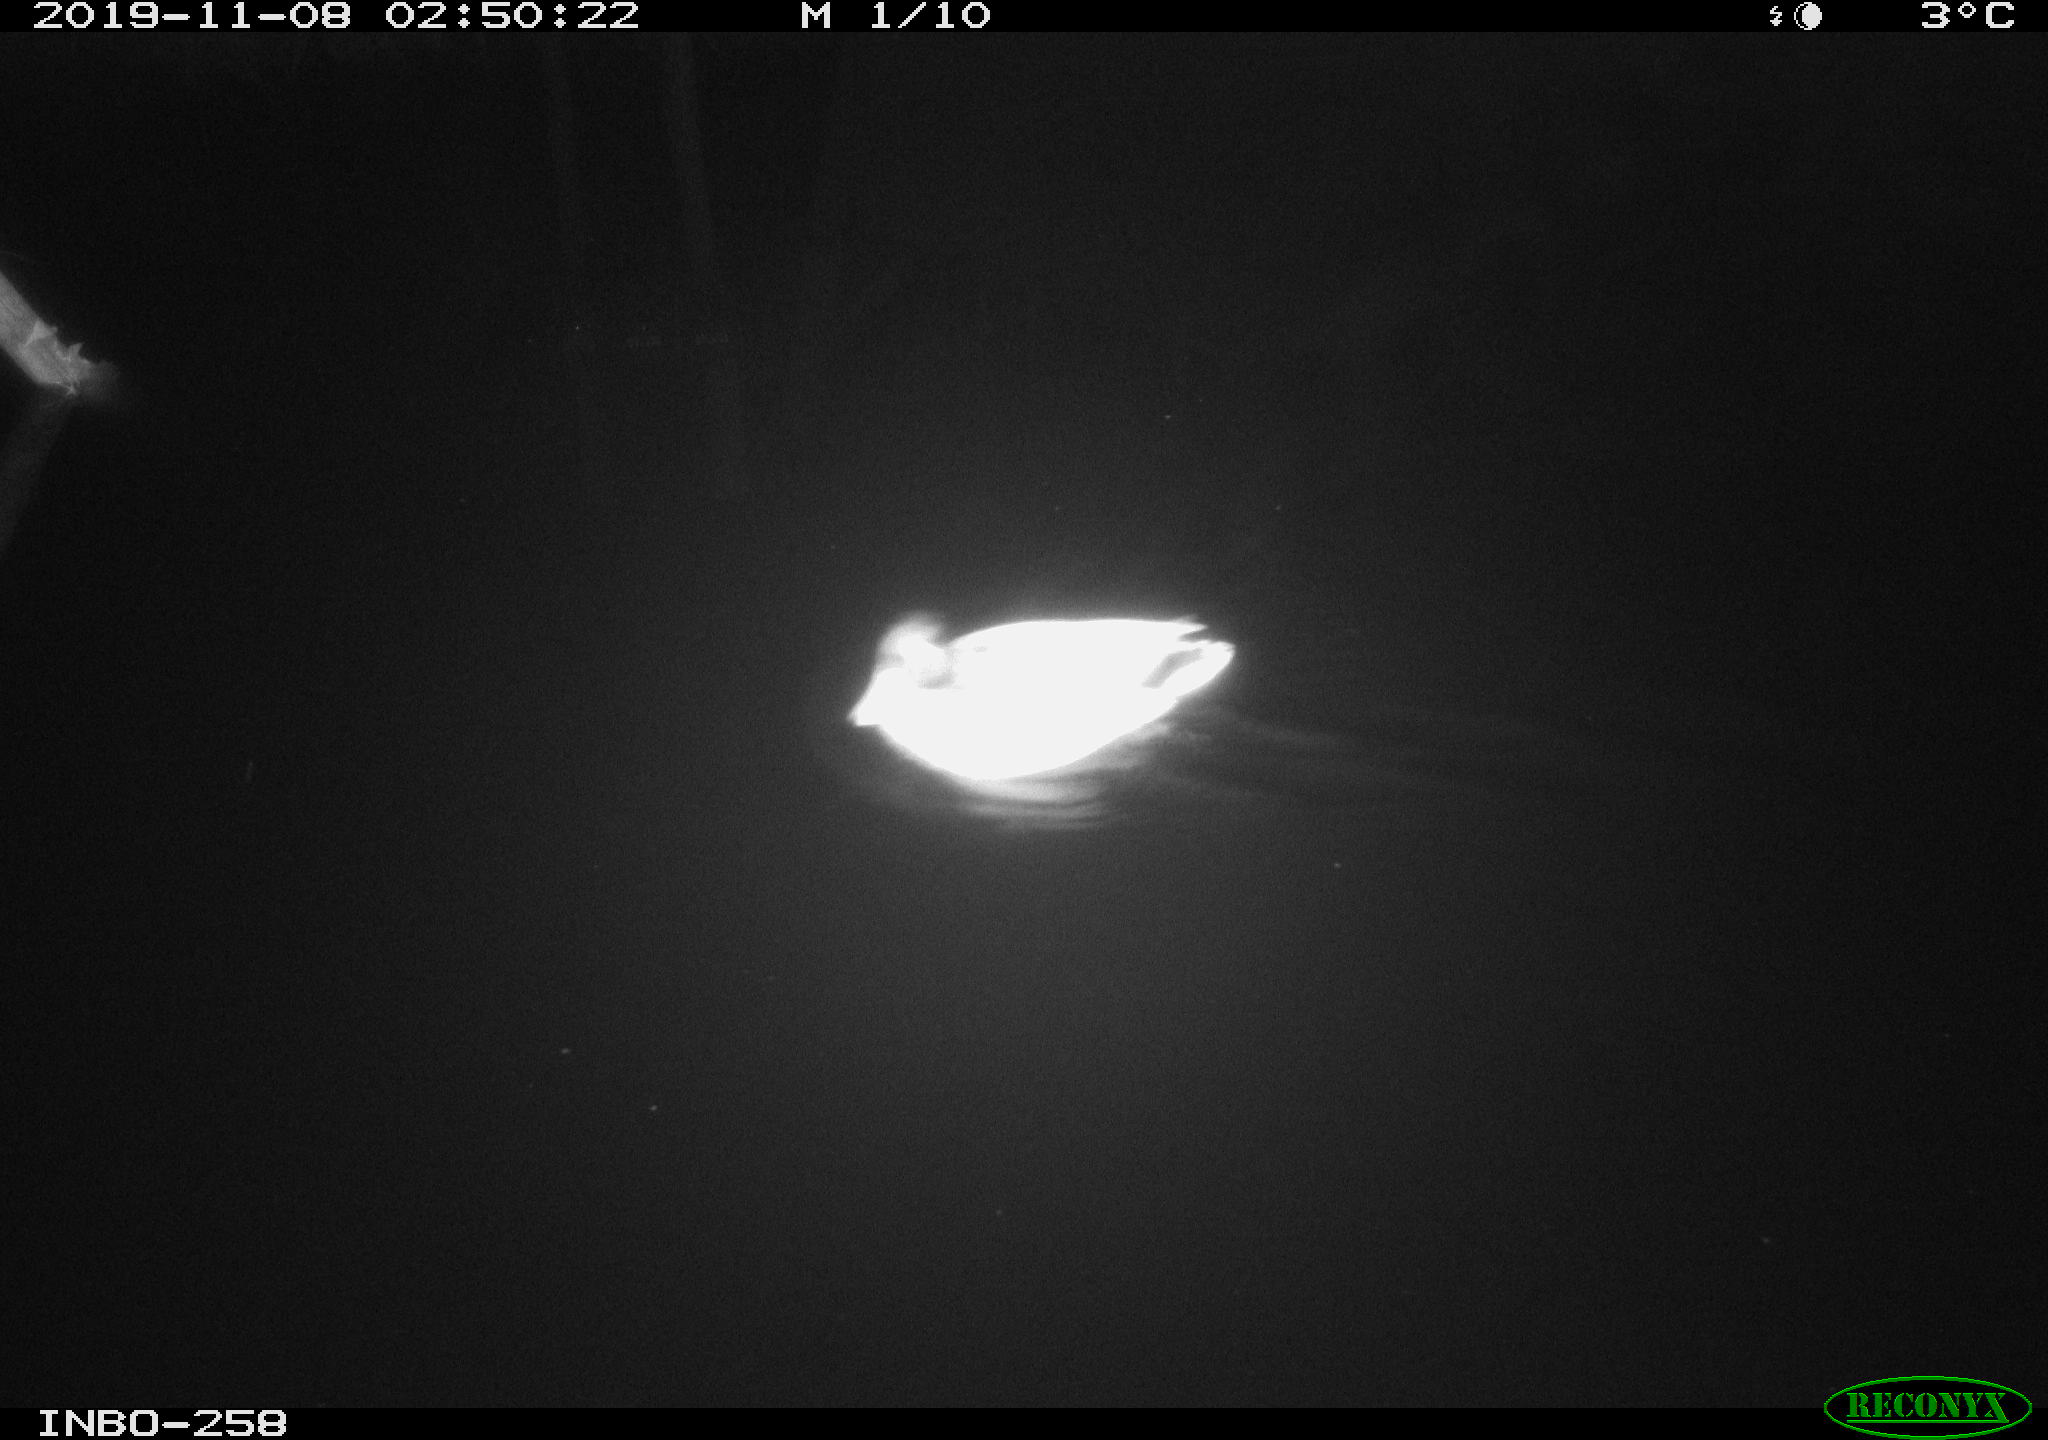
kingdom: Animalia
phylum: Chordata
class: Aves
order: Anseriformes
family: Anatidae
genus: Anas
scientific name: Anas platyrhynchos
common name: Mallard
